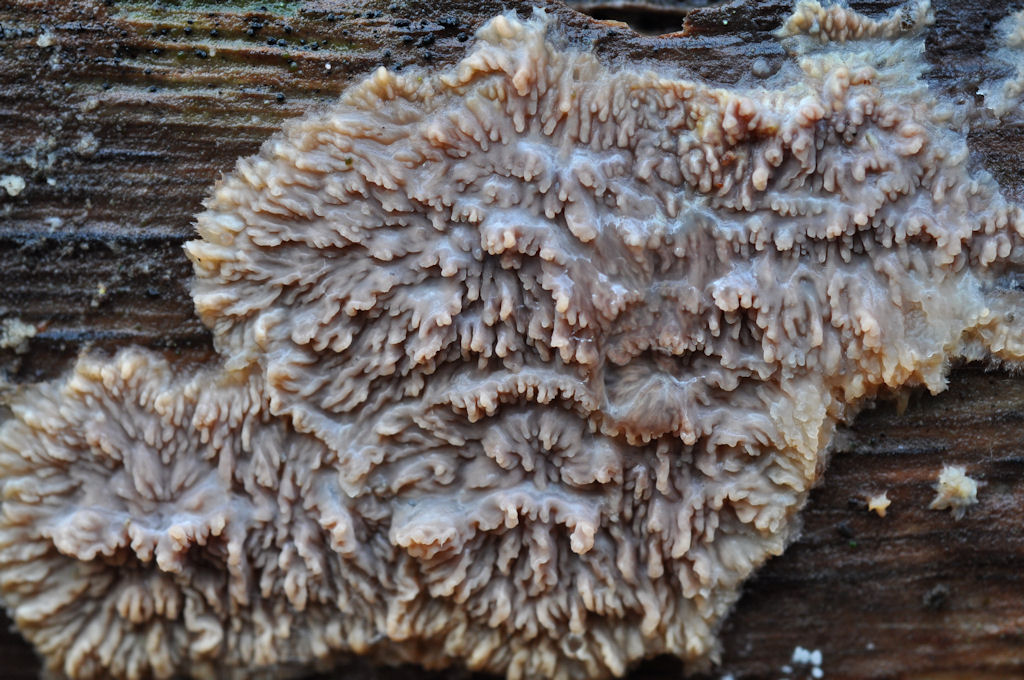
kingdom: Fungi
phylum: Basidiomycota
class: Agaricomycetes
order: Polyporales
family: Meruliaceae
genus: Phlebia
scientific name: Phlebia radiata
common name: stråle-åresvamp
